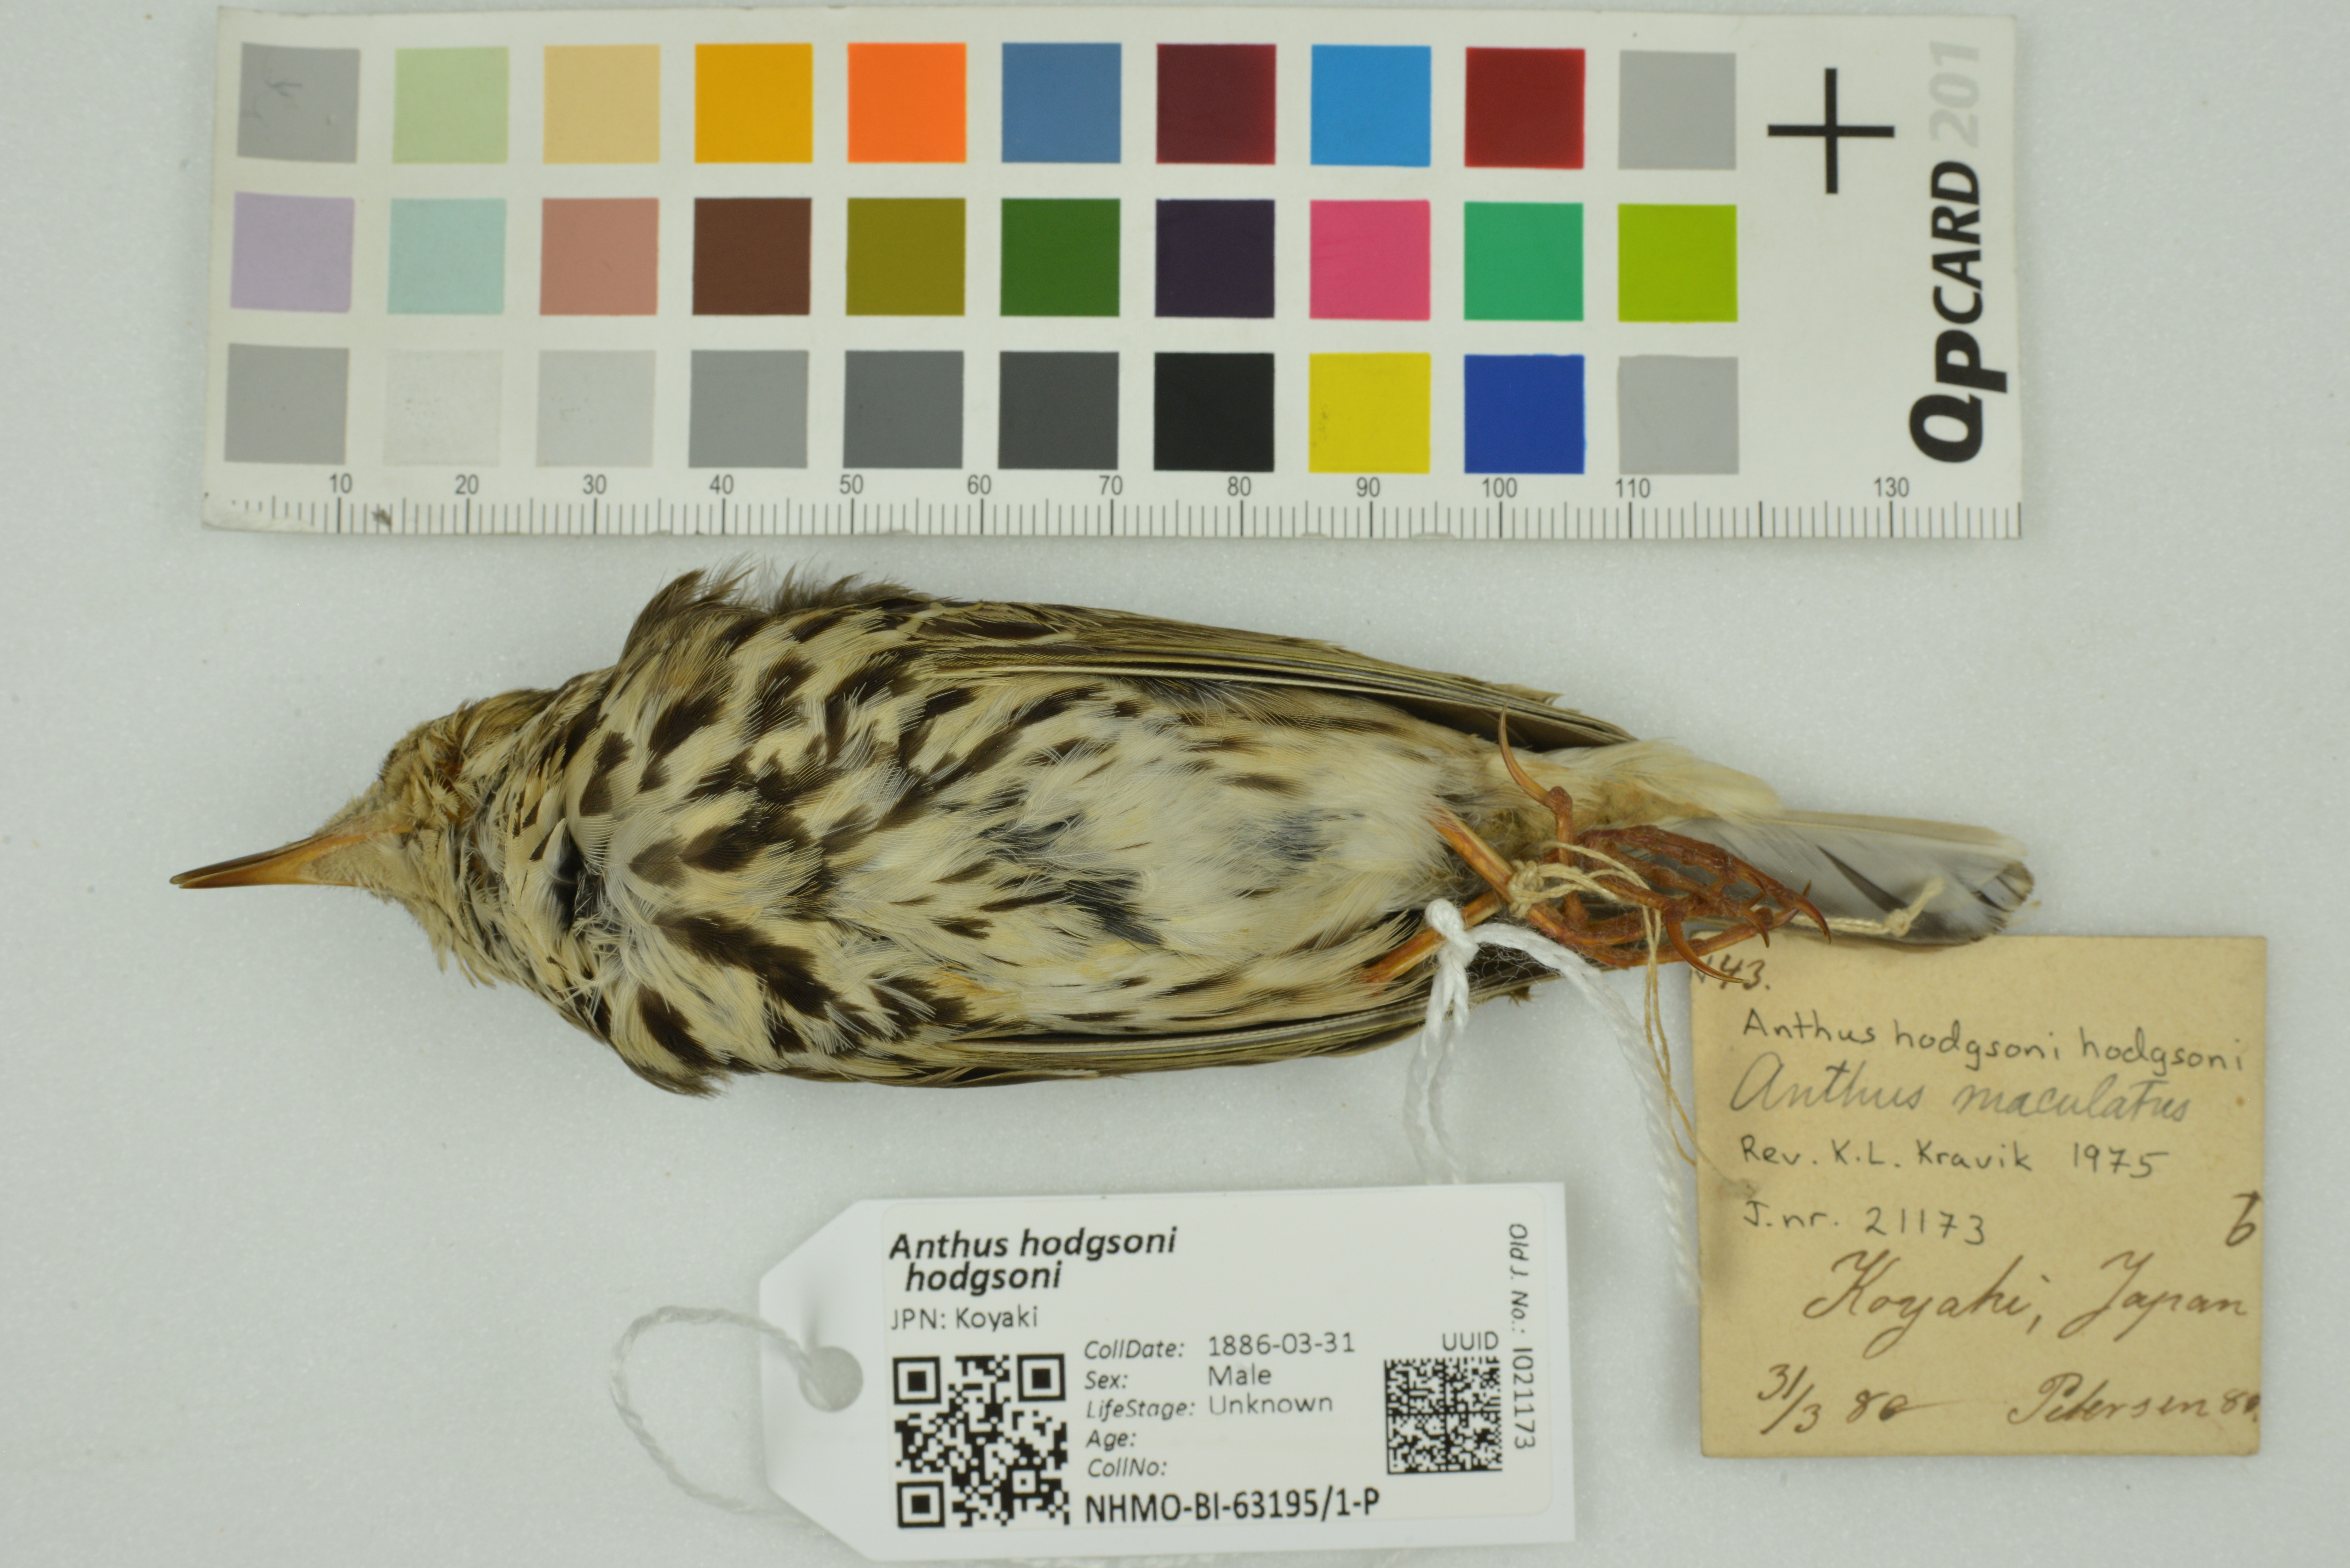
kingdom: Animalia
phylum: Chordata
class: Aves
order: Passeriformes
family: Motacillidae
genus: Anthus
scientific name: Anthus hodgsoni
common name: Olive-backed pipit
